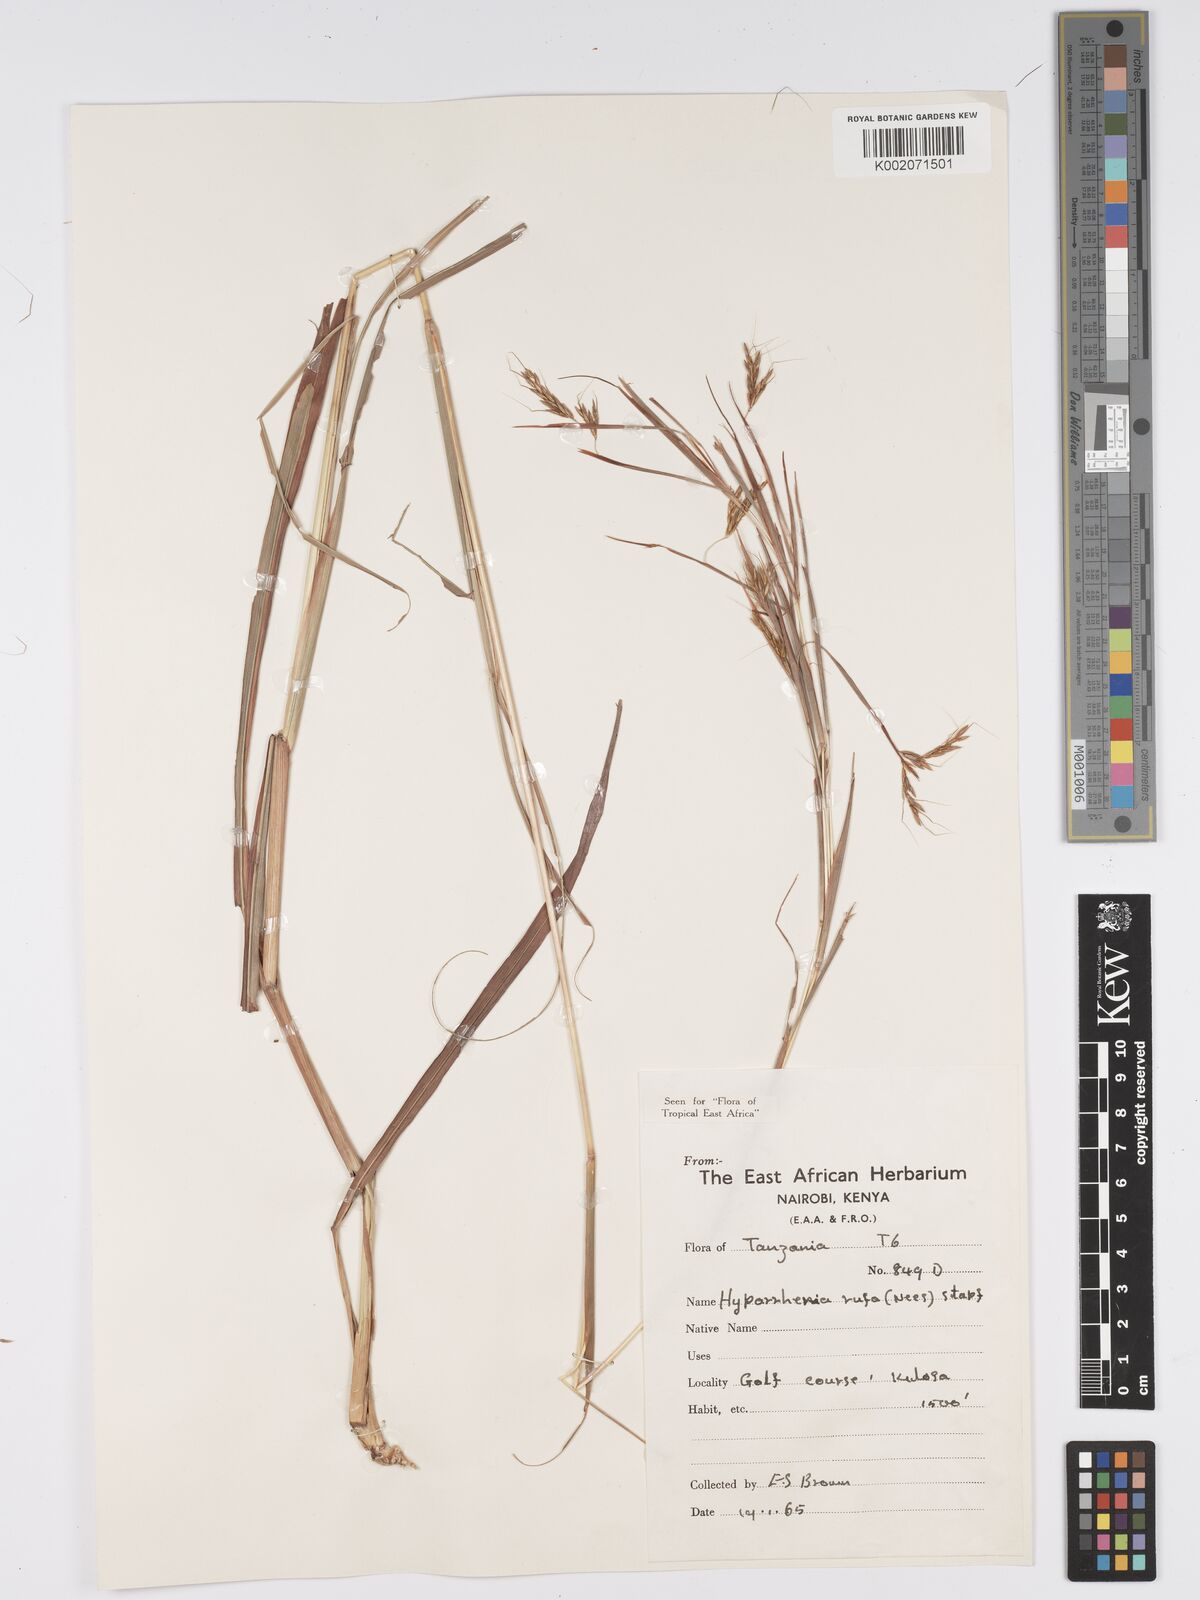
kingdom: Plantae
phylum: Tracheophyta
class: Liliopsida
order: Poales
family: Poaceae
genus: Hyparrhenia
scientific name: Hyparrhenia rufa
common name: Jaraguagrass
